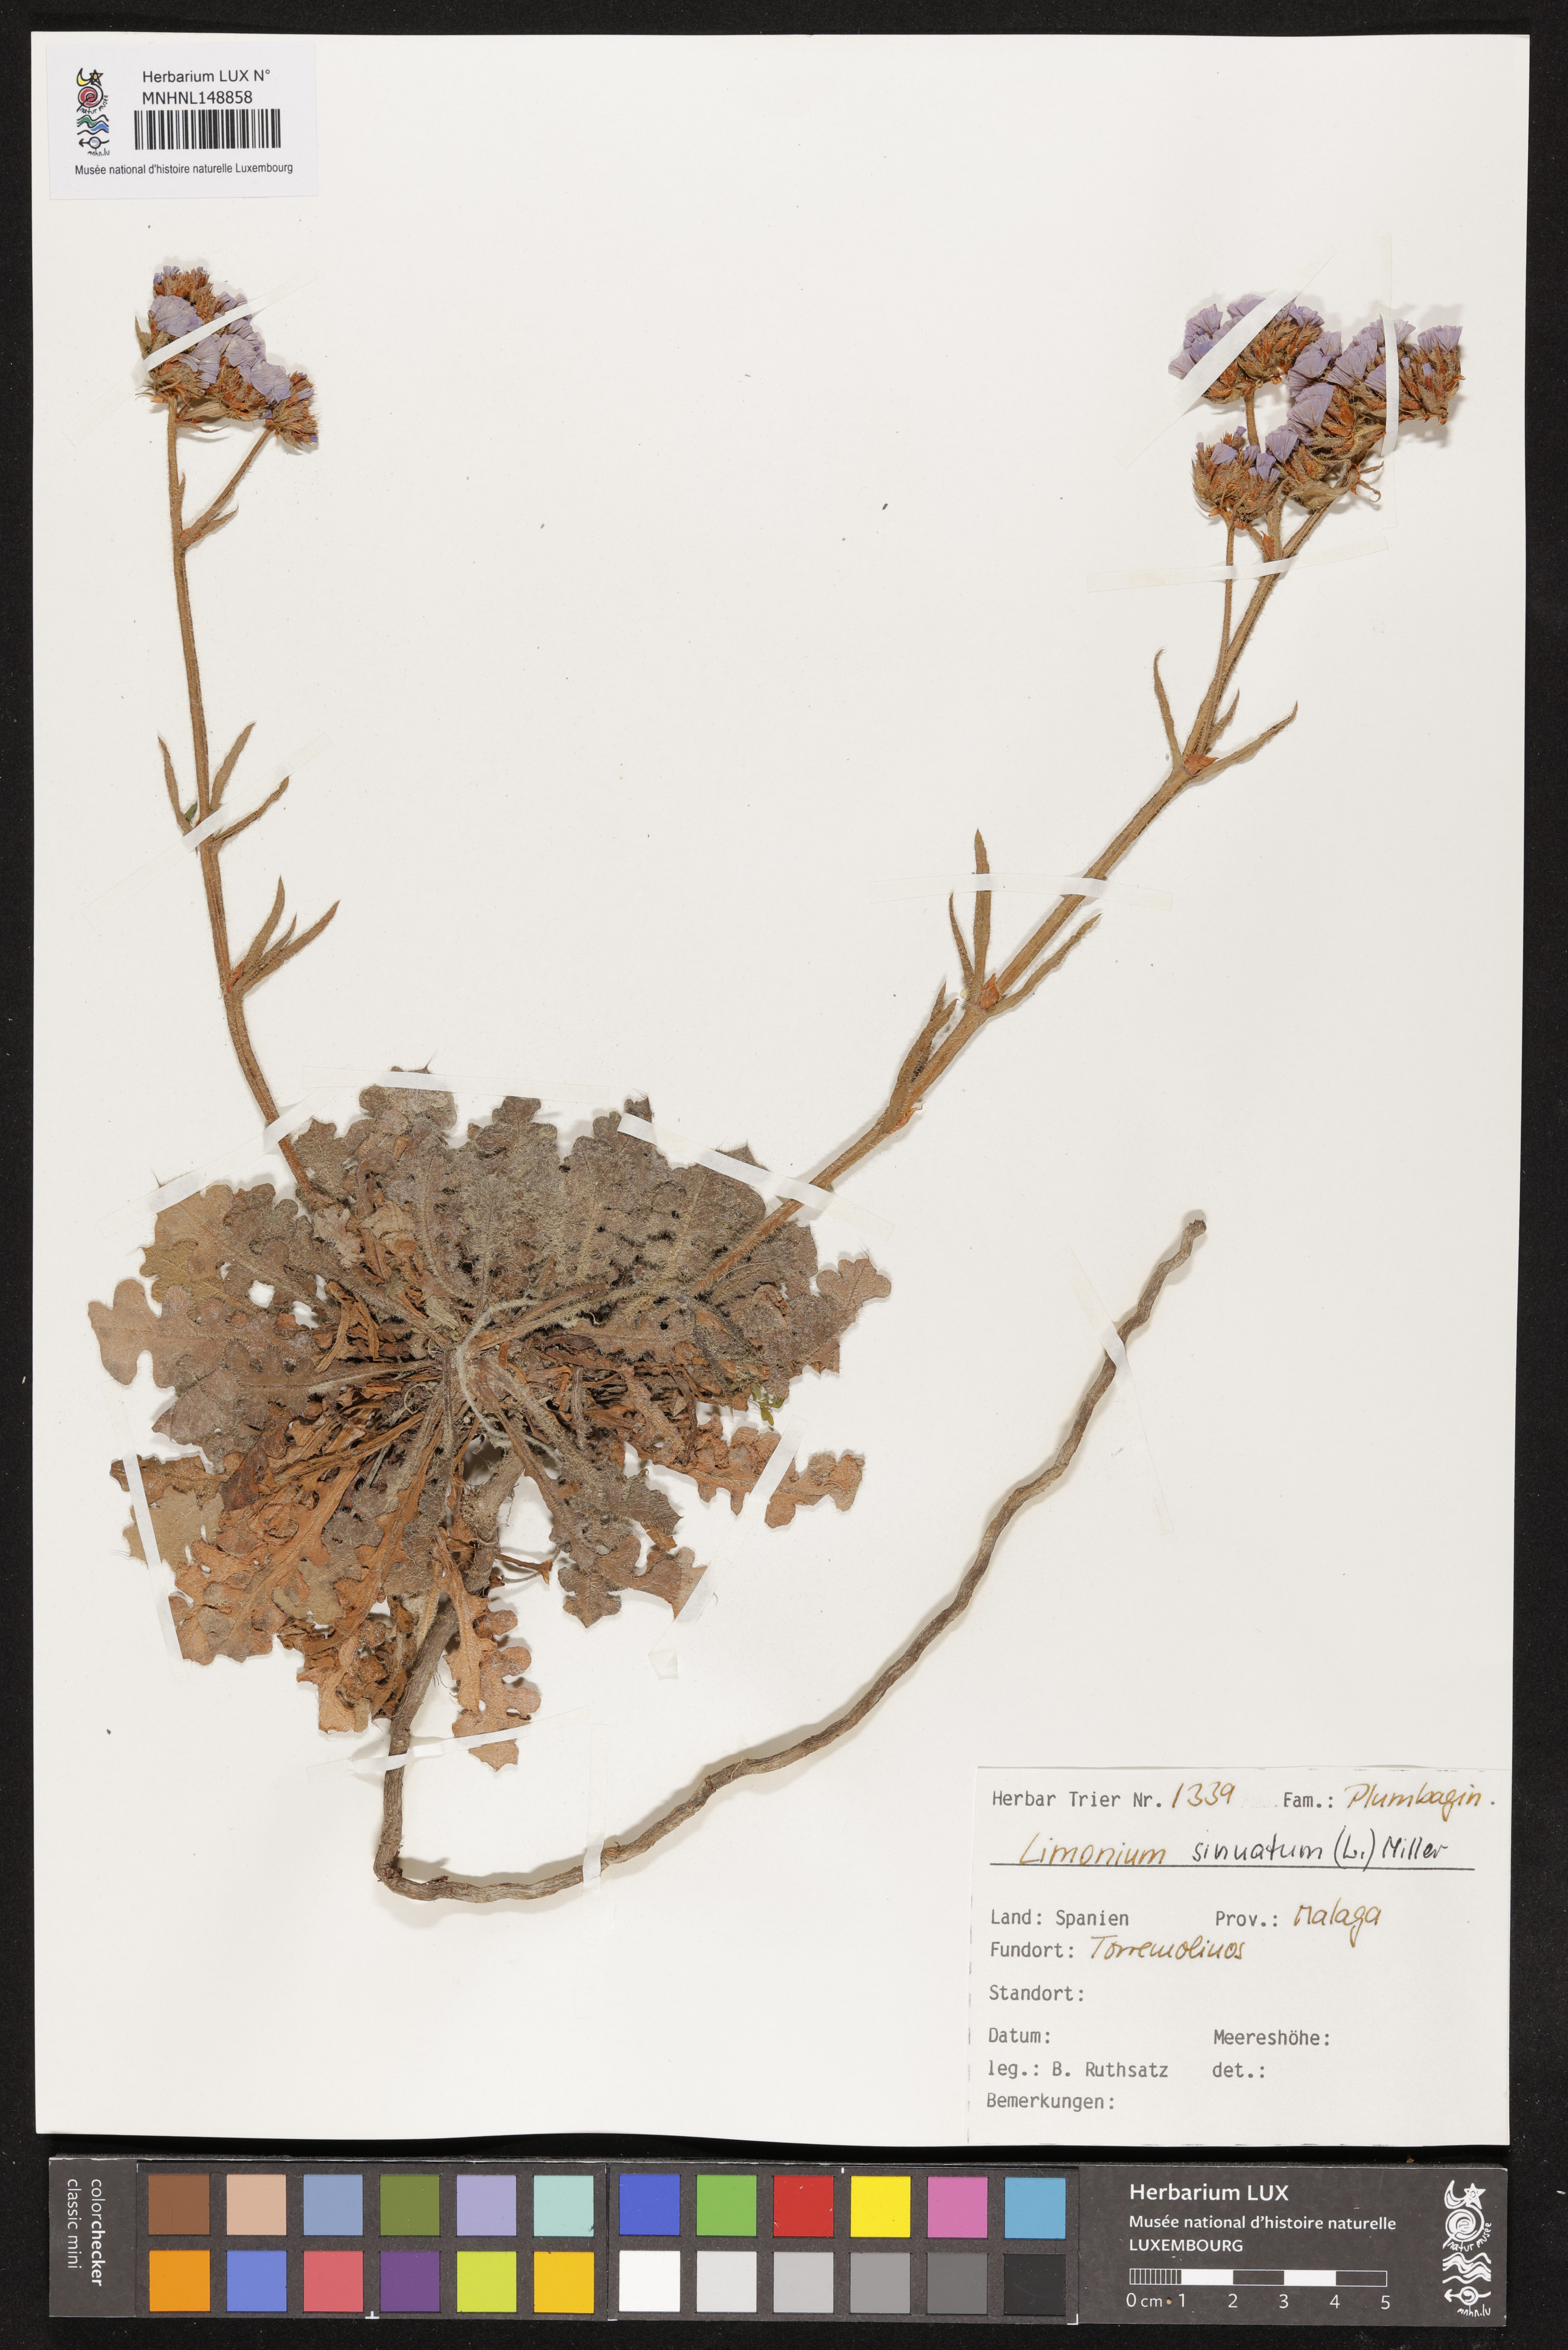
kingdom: Plantae
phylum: Tracheophyta
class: Magnoliopsida
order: Caryophyllales
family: Plumbaginaceae
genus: Limonium
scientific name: Limonium sinuatum
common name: Statice
